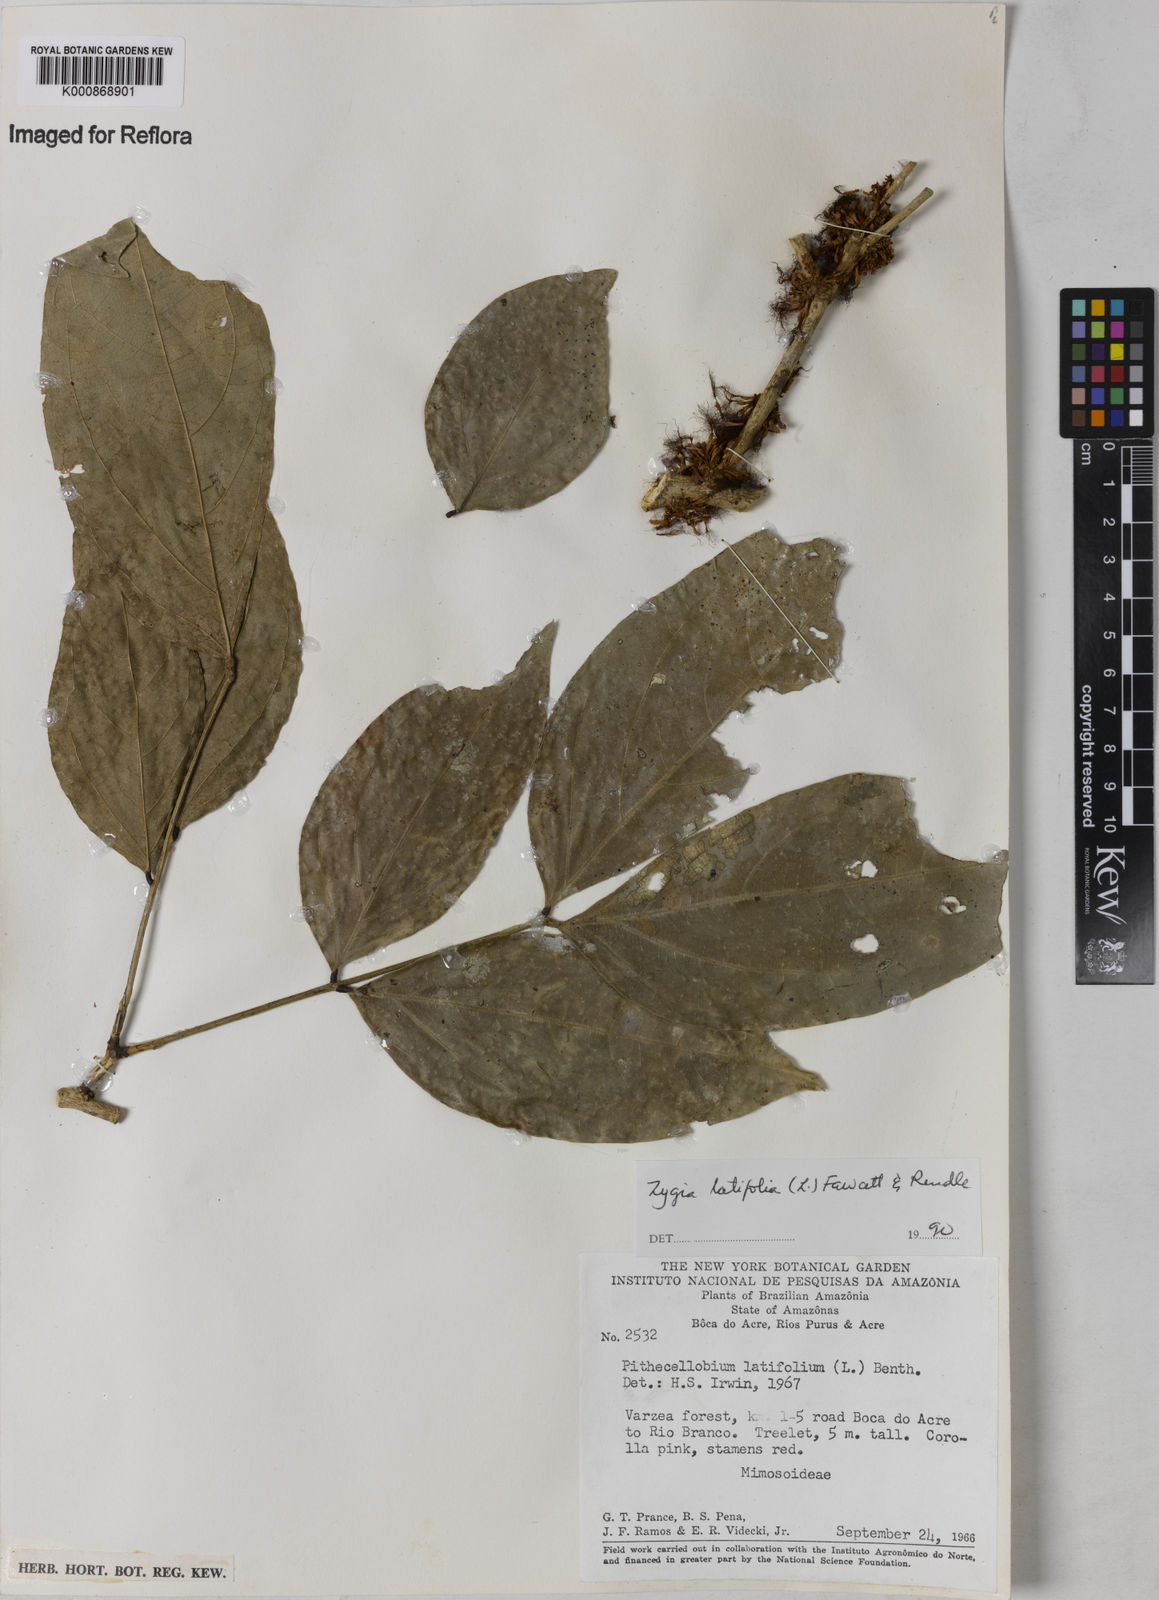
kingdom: Plantae
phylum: Tracheophyta
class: Magnoliopsida
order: Fabales
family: Fabaceae
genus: Zygia
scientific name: Zygia latifolia
